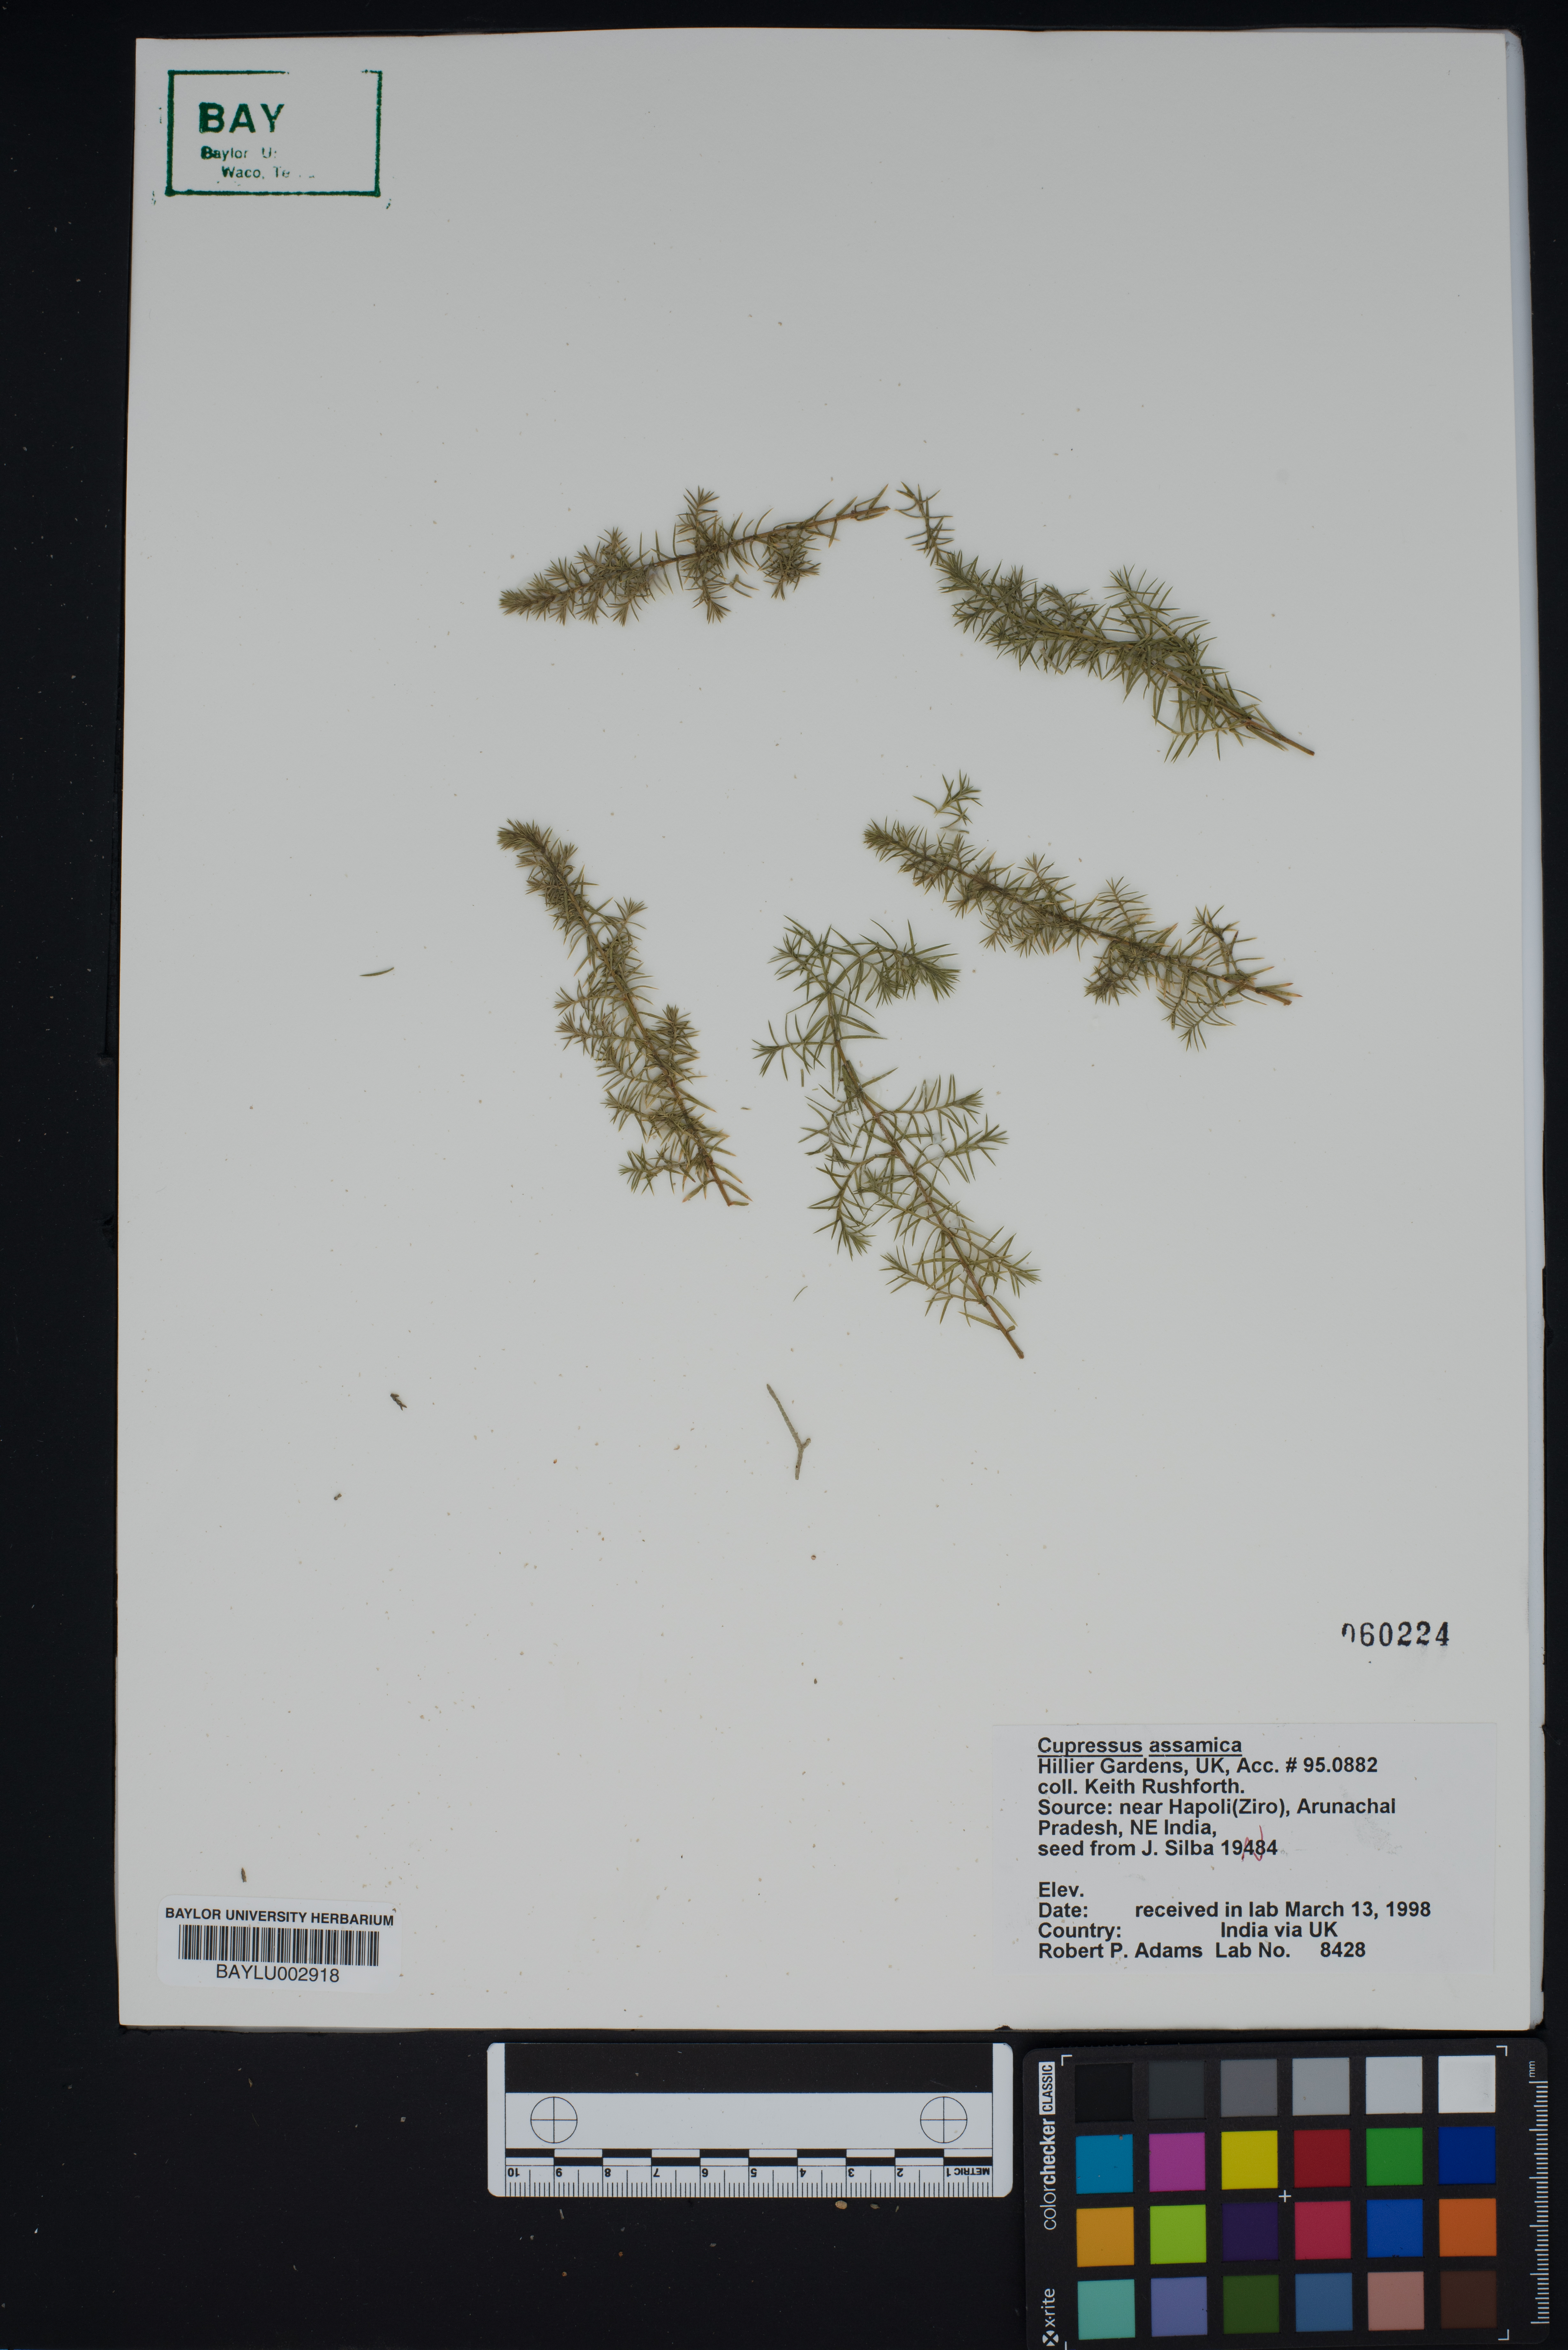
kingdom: Plantae
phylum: Tracheophyta
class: Pinopsida
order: Pinales
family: Cupressaceae
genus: Cupressus
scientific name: Cupressus cashmeriana
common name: Bhutan cypress
